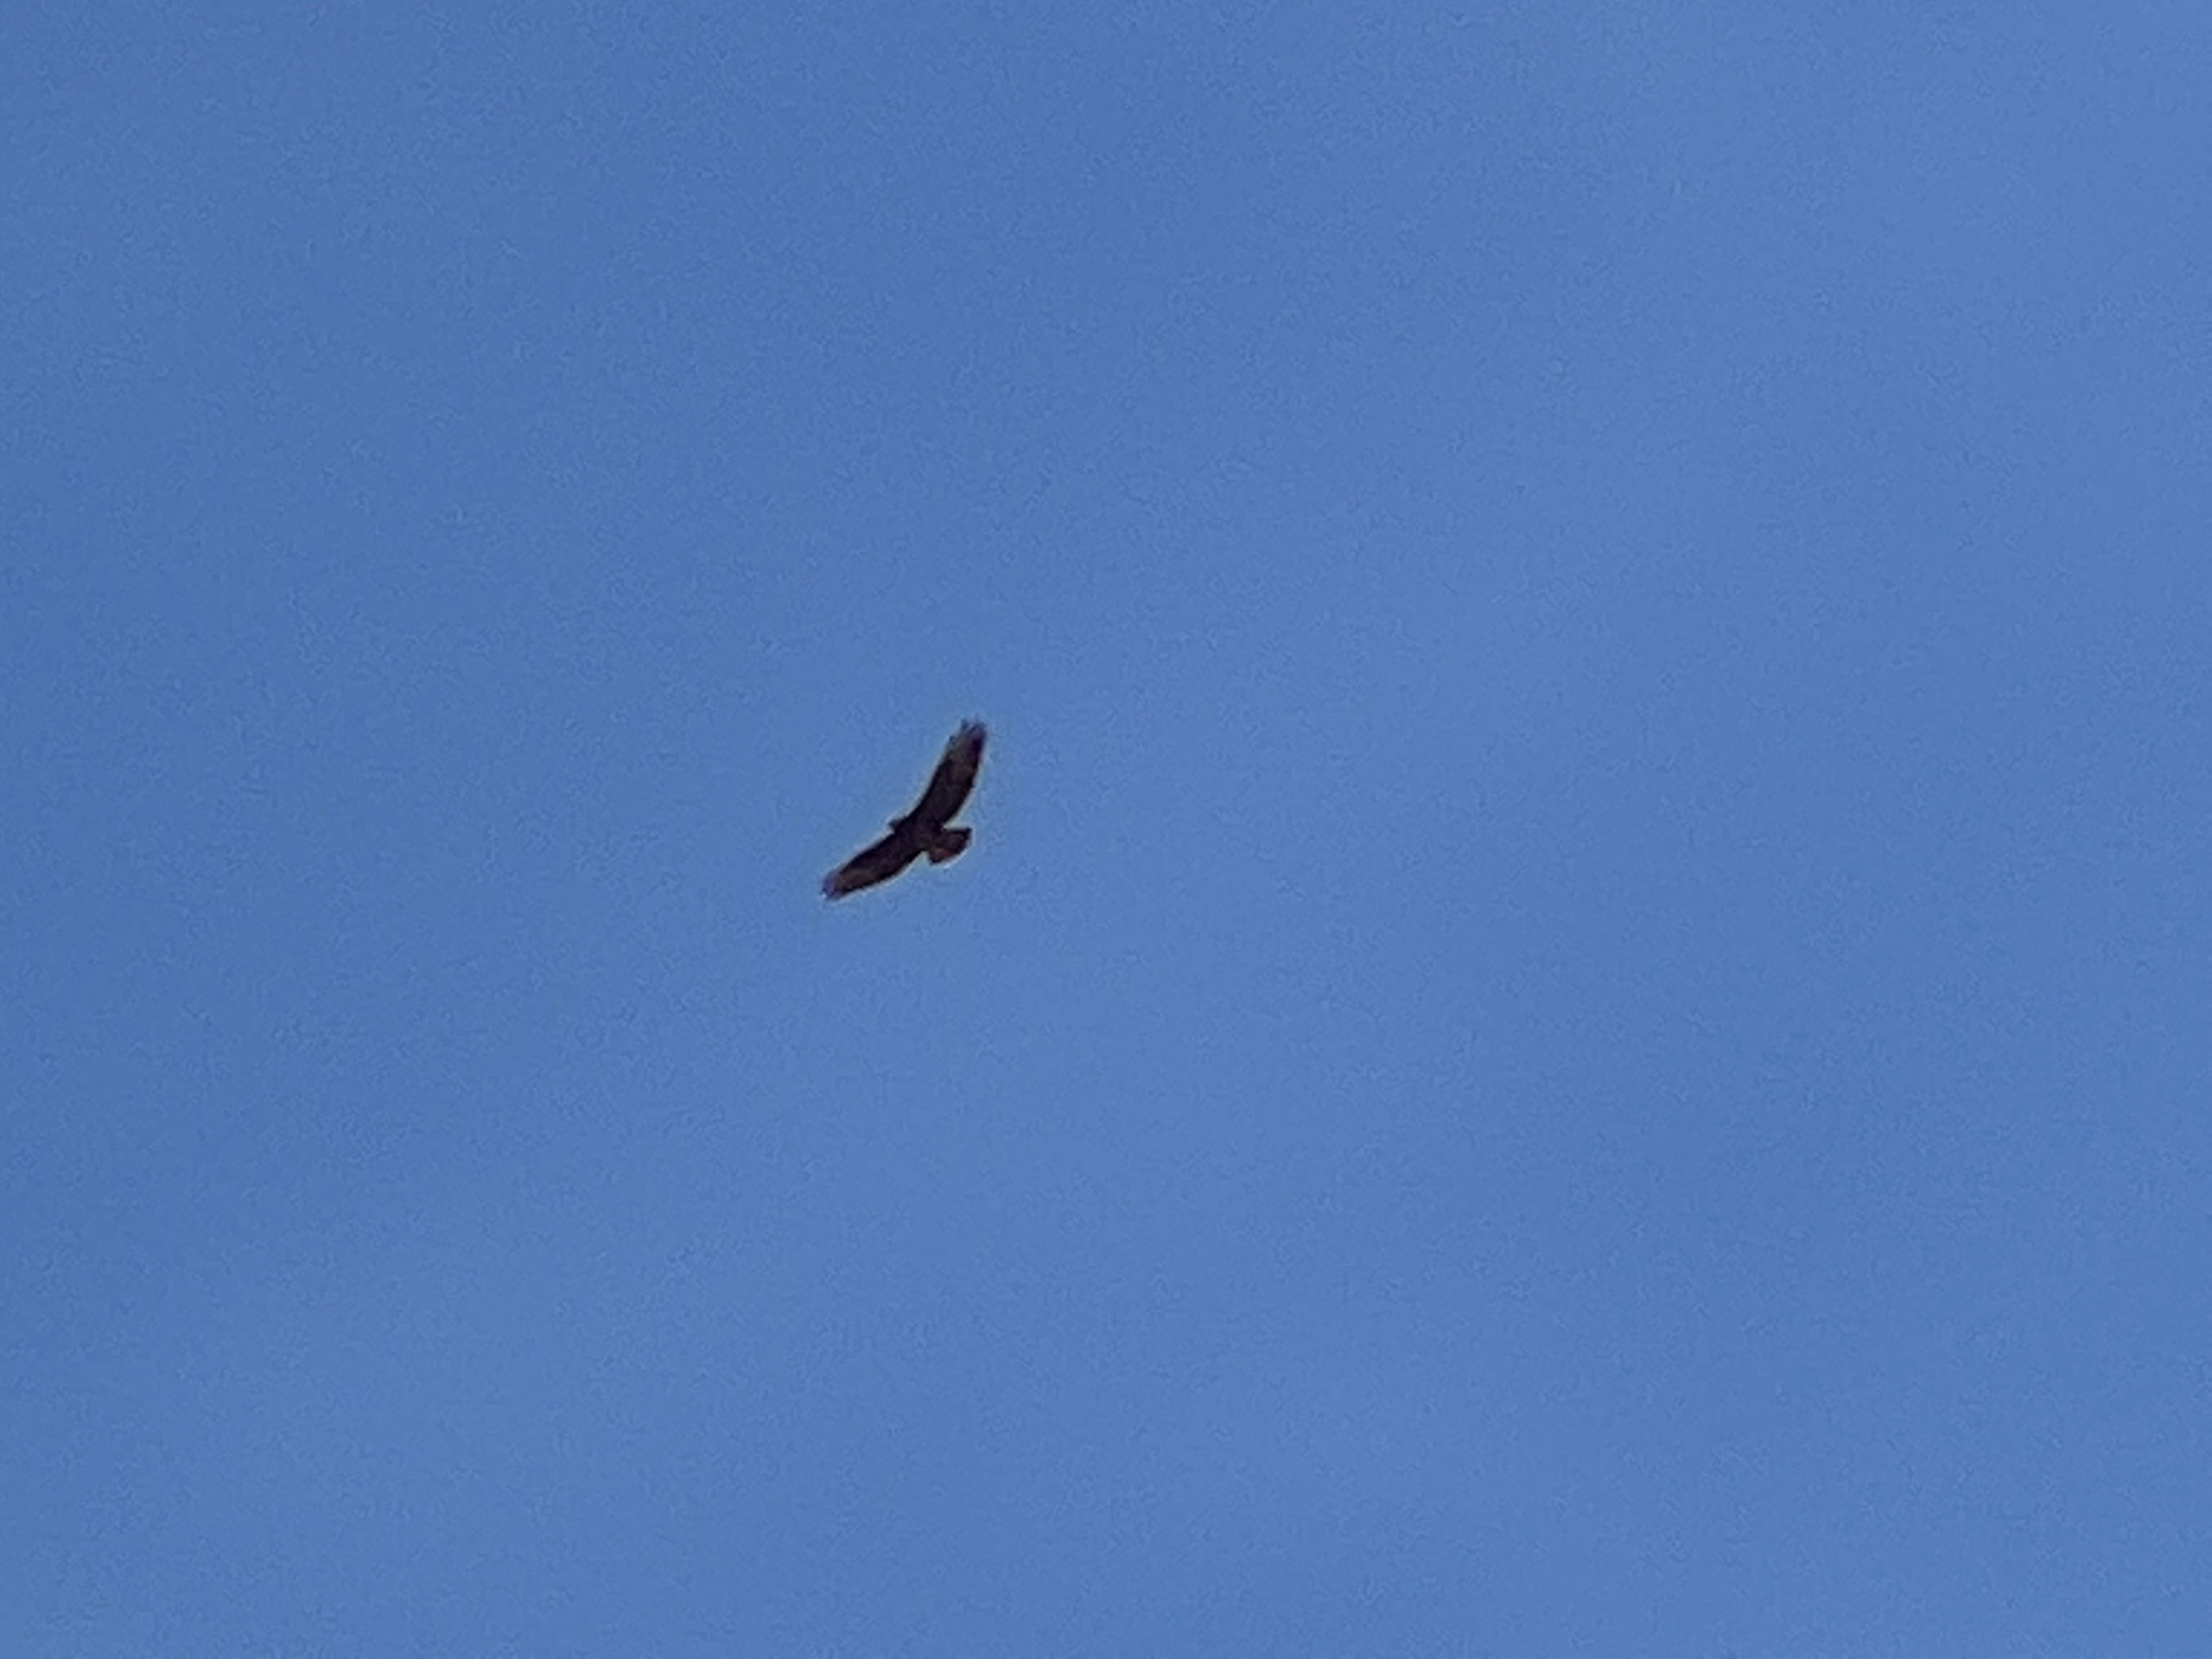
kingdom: Animalia
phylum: Chordata
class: Aves
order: Accipitriformes
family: Accipitridae
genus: Buteo
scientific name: Buteo buteo
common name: Musvåge
